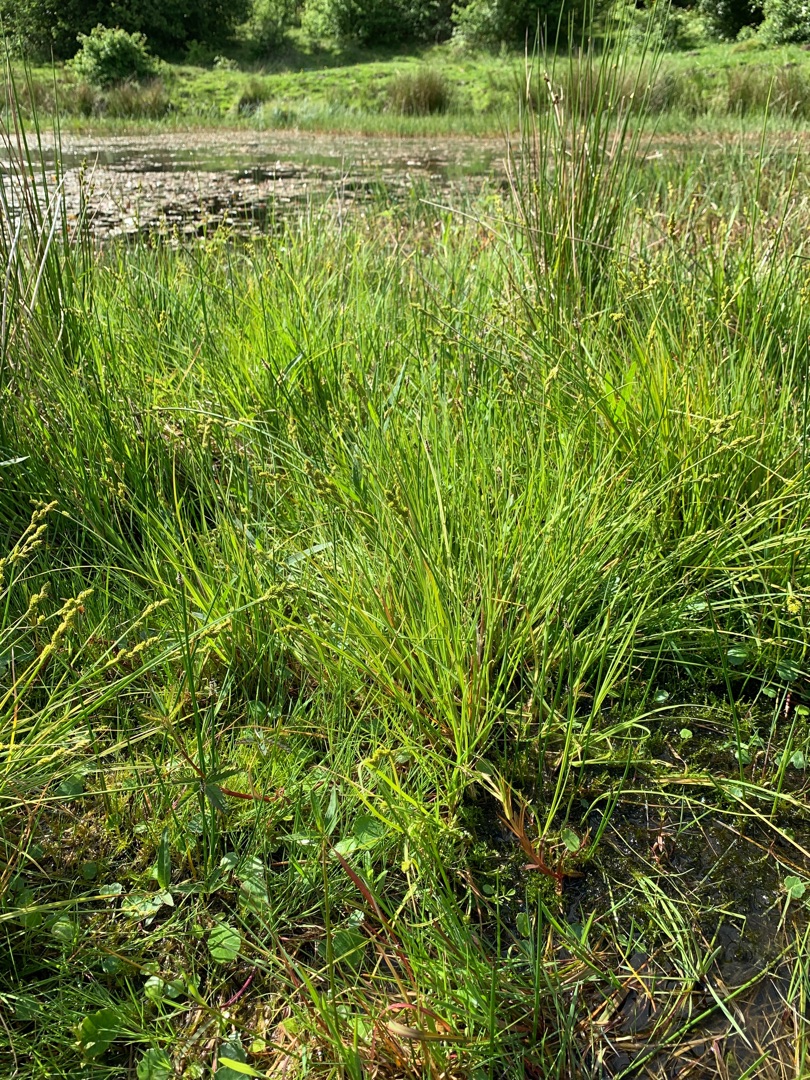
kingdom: Plantae
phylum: Tracheophyta
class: Liliopsida
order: Poales
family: Cyperaceae
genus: Carex
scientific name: Carex canescens
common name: Grå star
